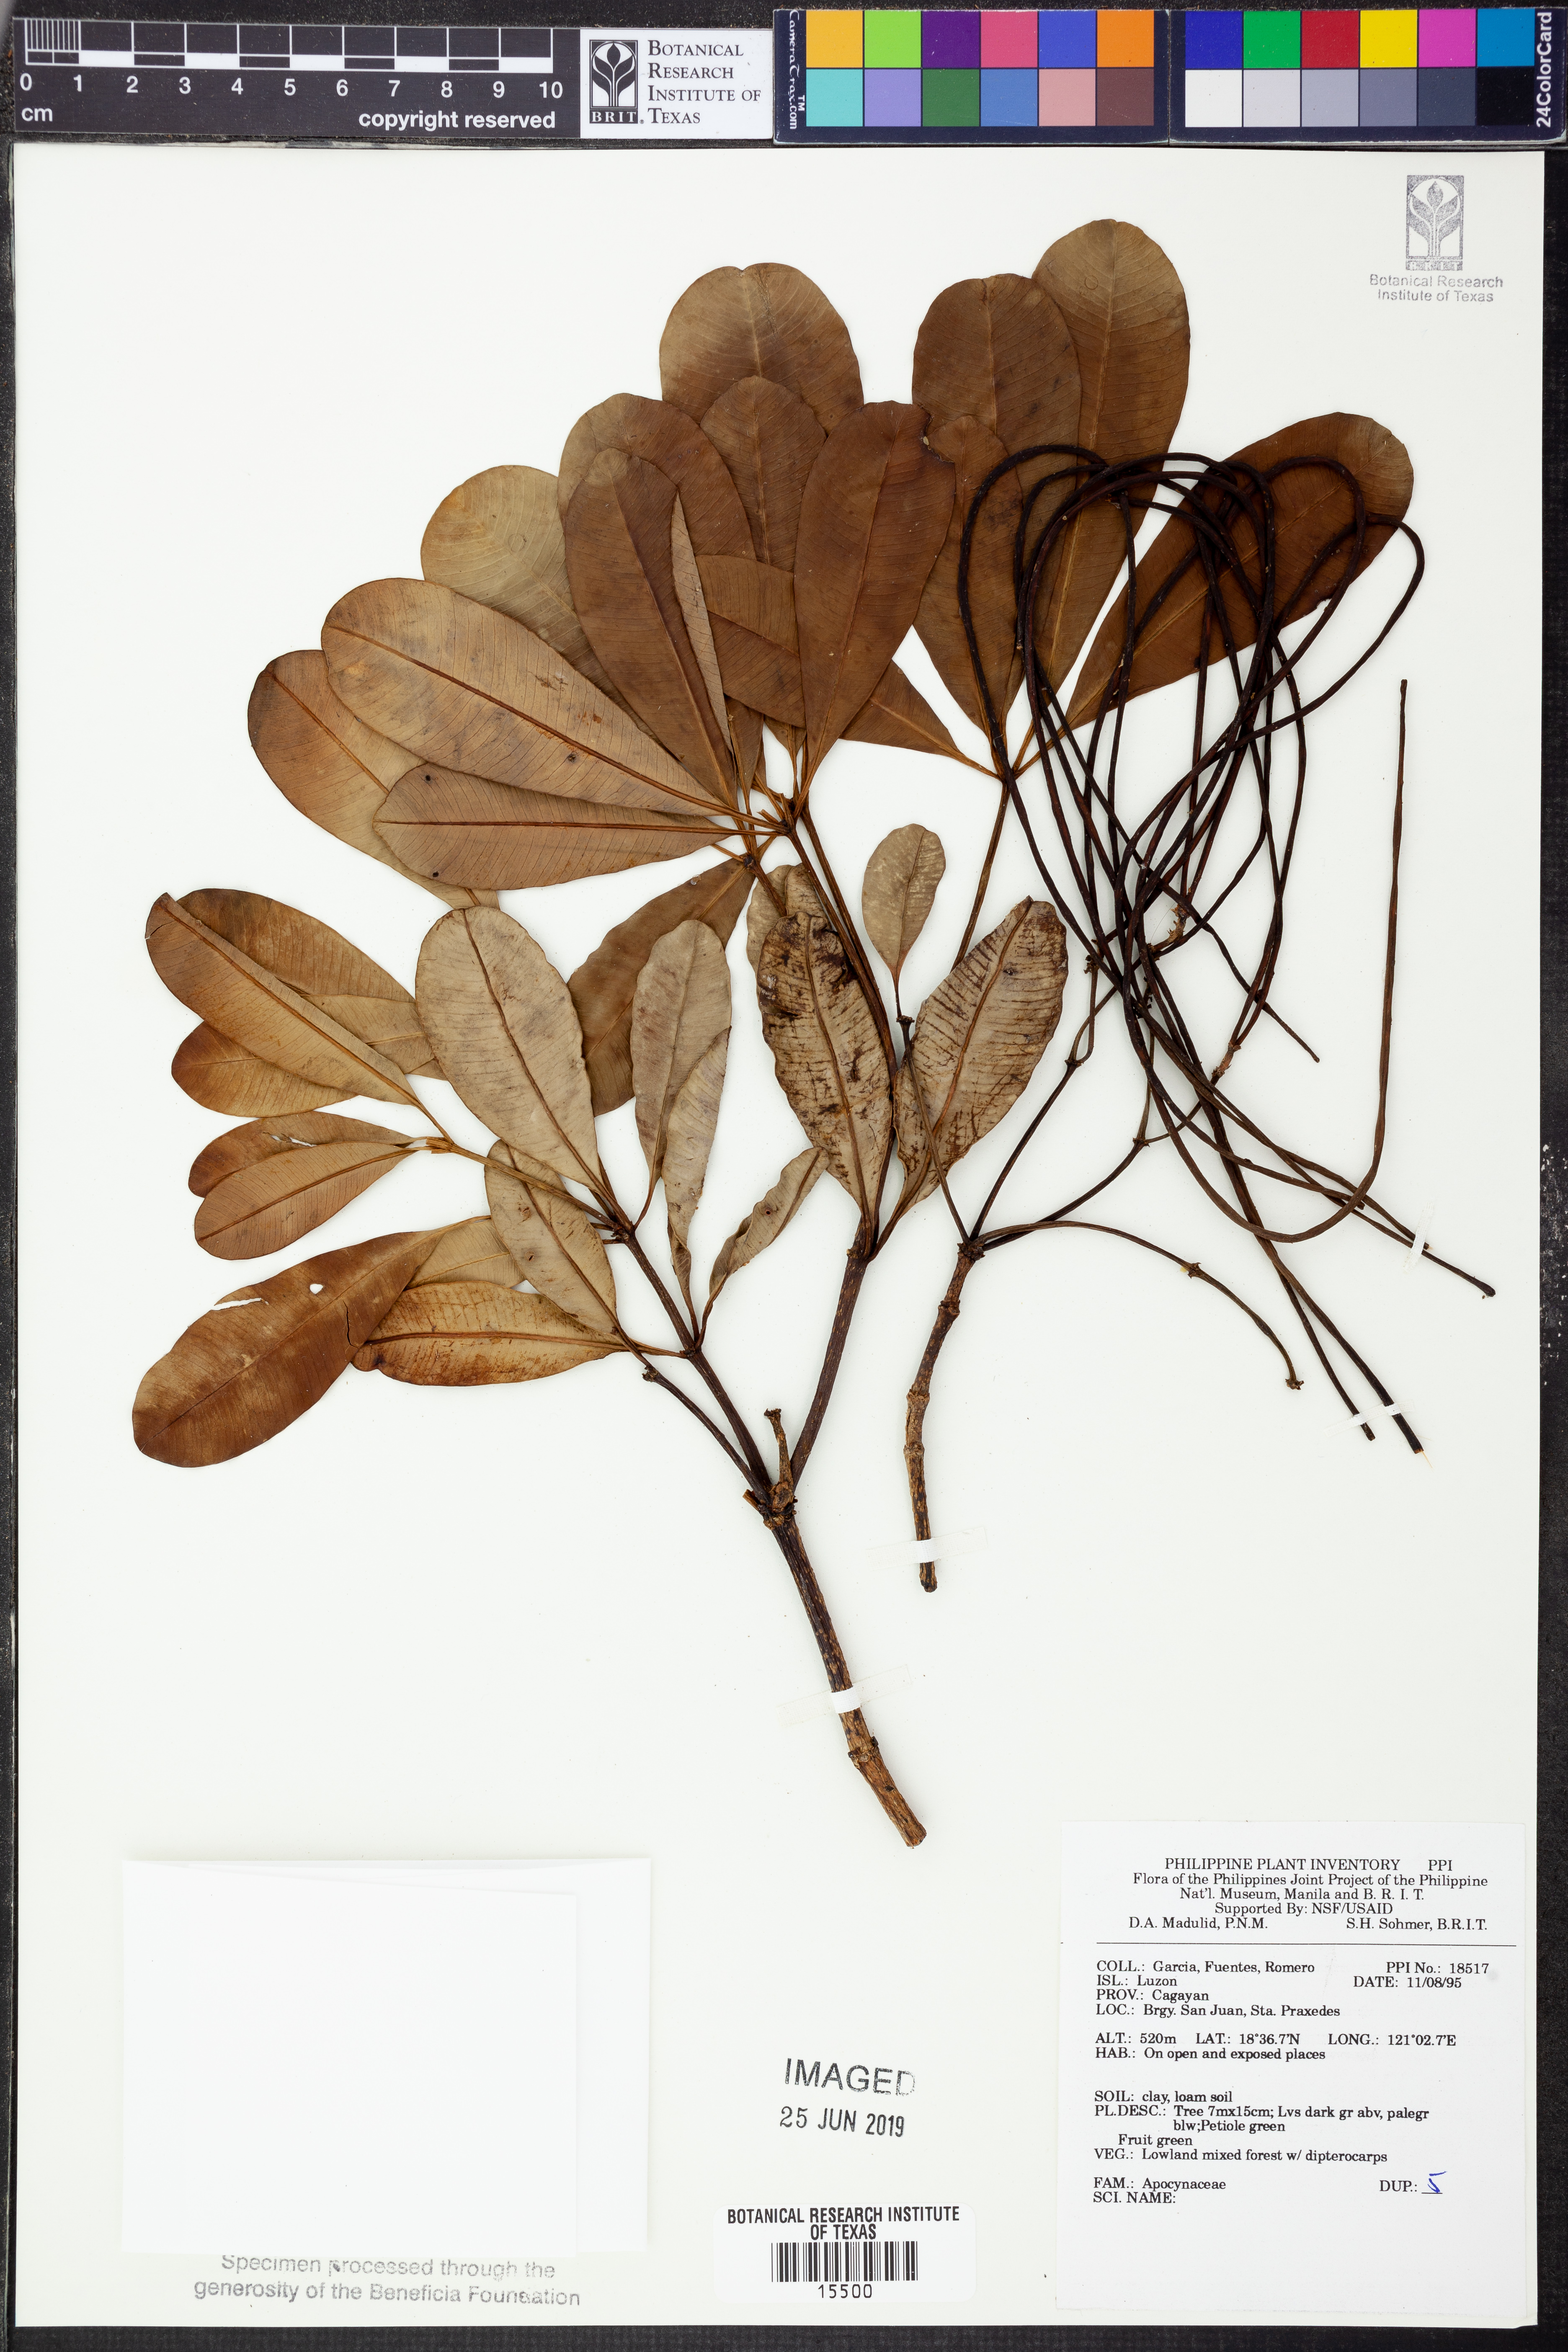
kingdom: Plantae
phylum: Tracheophyta
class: Magnoliopsida
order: Gentianales
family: Apocynaceae
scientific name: Apocynaceae
